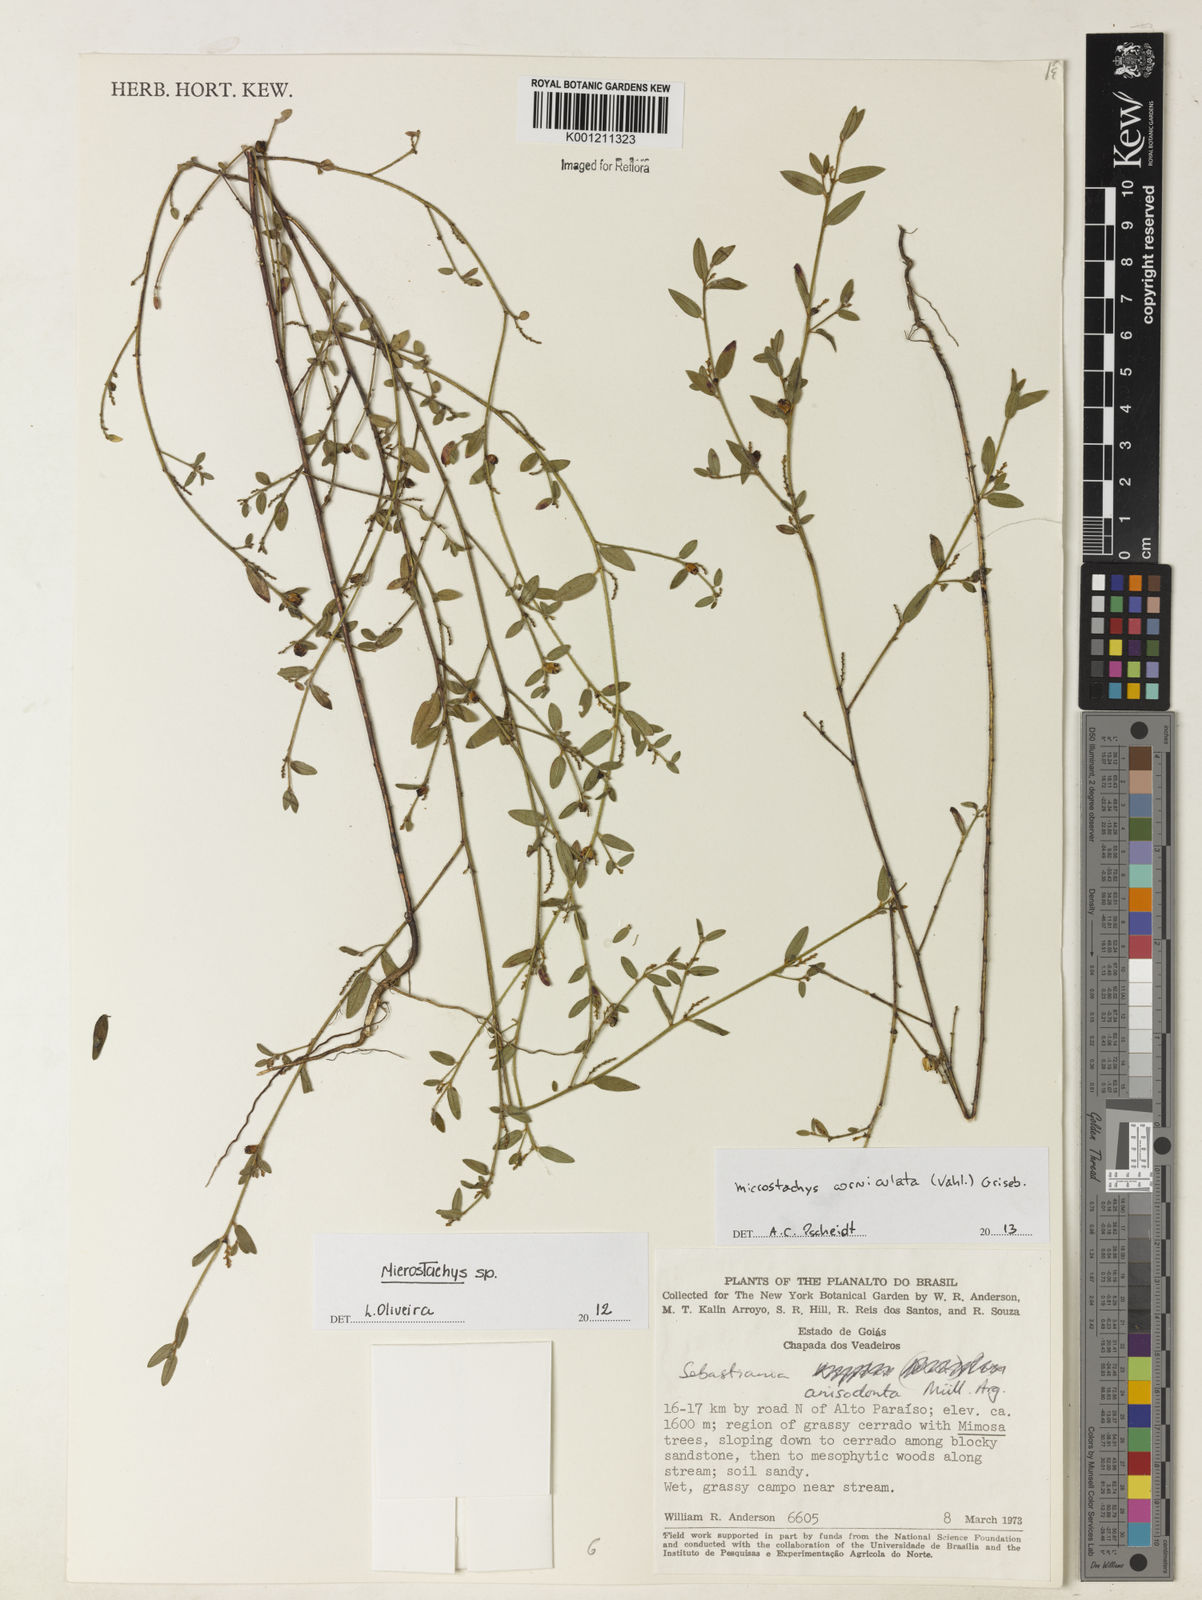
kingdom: Plantae
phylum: Tracheophyta
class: Magnoliopsida
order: Malpighiales
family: Euphorbiaceae
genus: Microstachys
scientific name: Microstachys corniculata
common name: Hato tejas
